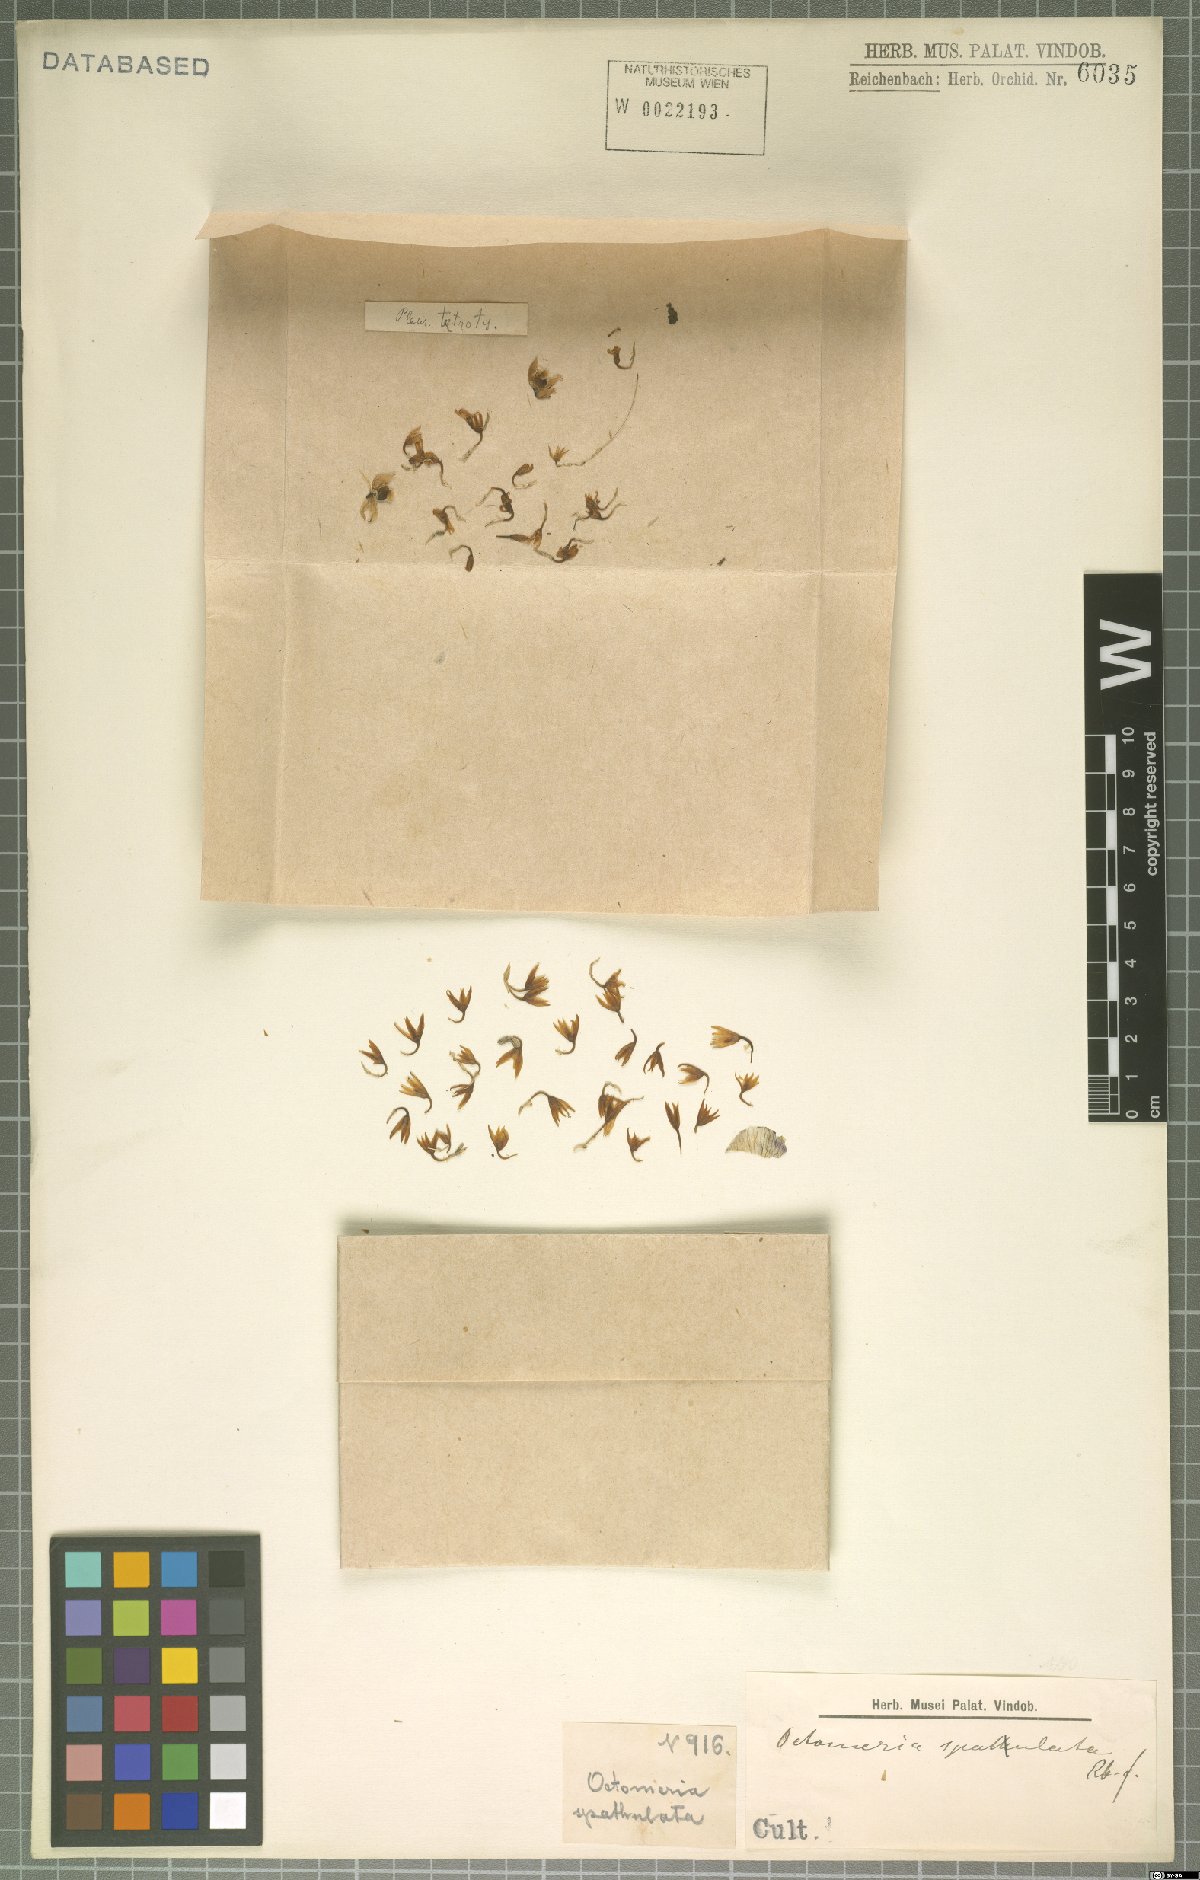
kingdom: Plantae
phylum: Tracheophyta
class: Liliopsida
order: Asparagales
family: Orchidaceae
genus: Octomeria
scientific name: Octomeria spatulata
